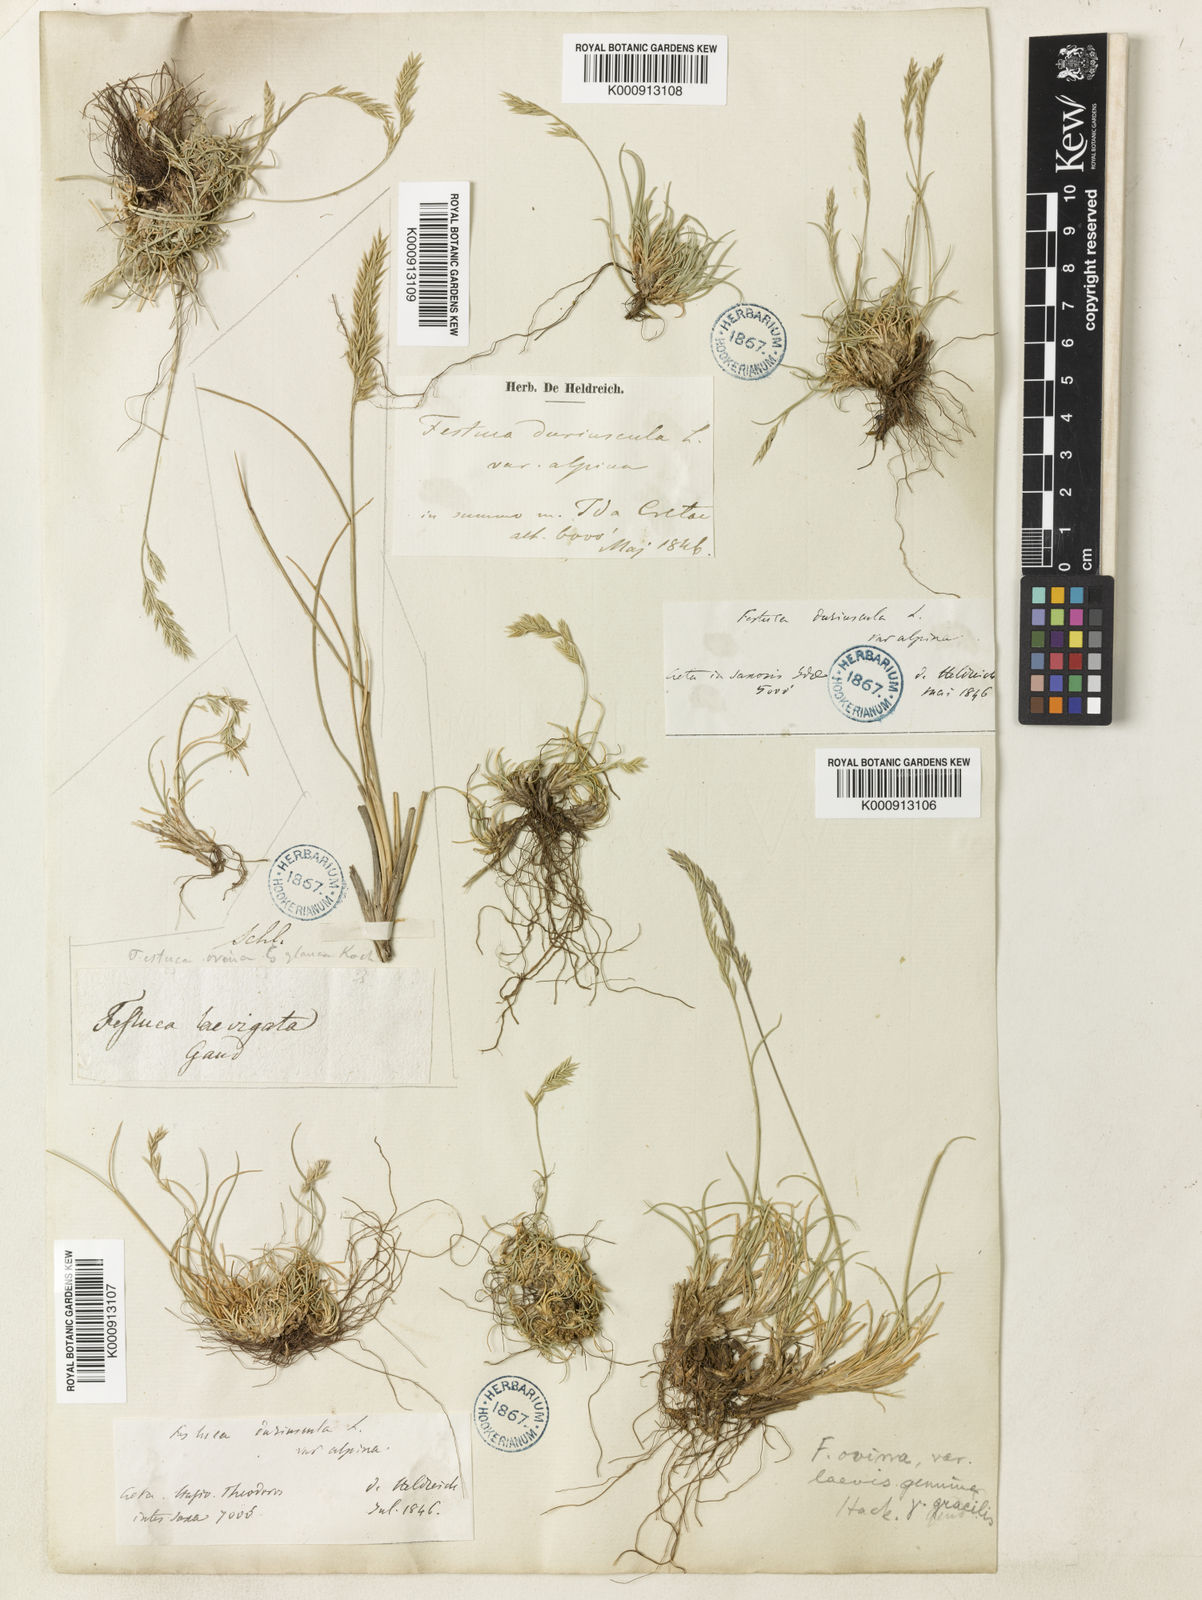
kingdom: Plantae
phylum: Tracheophyta
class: Liliopsida
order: Poales
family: Poaceae
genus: Festuca
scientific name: Festuca circummediterranea
